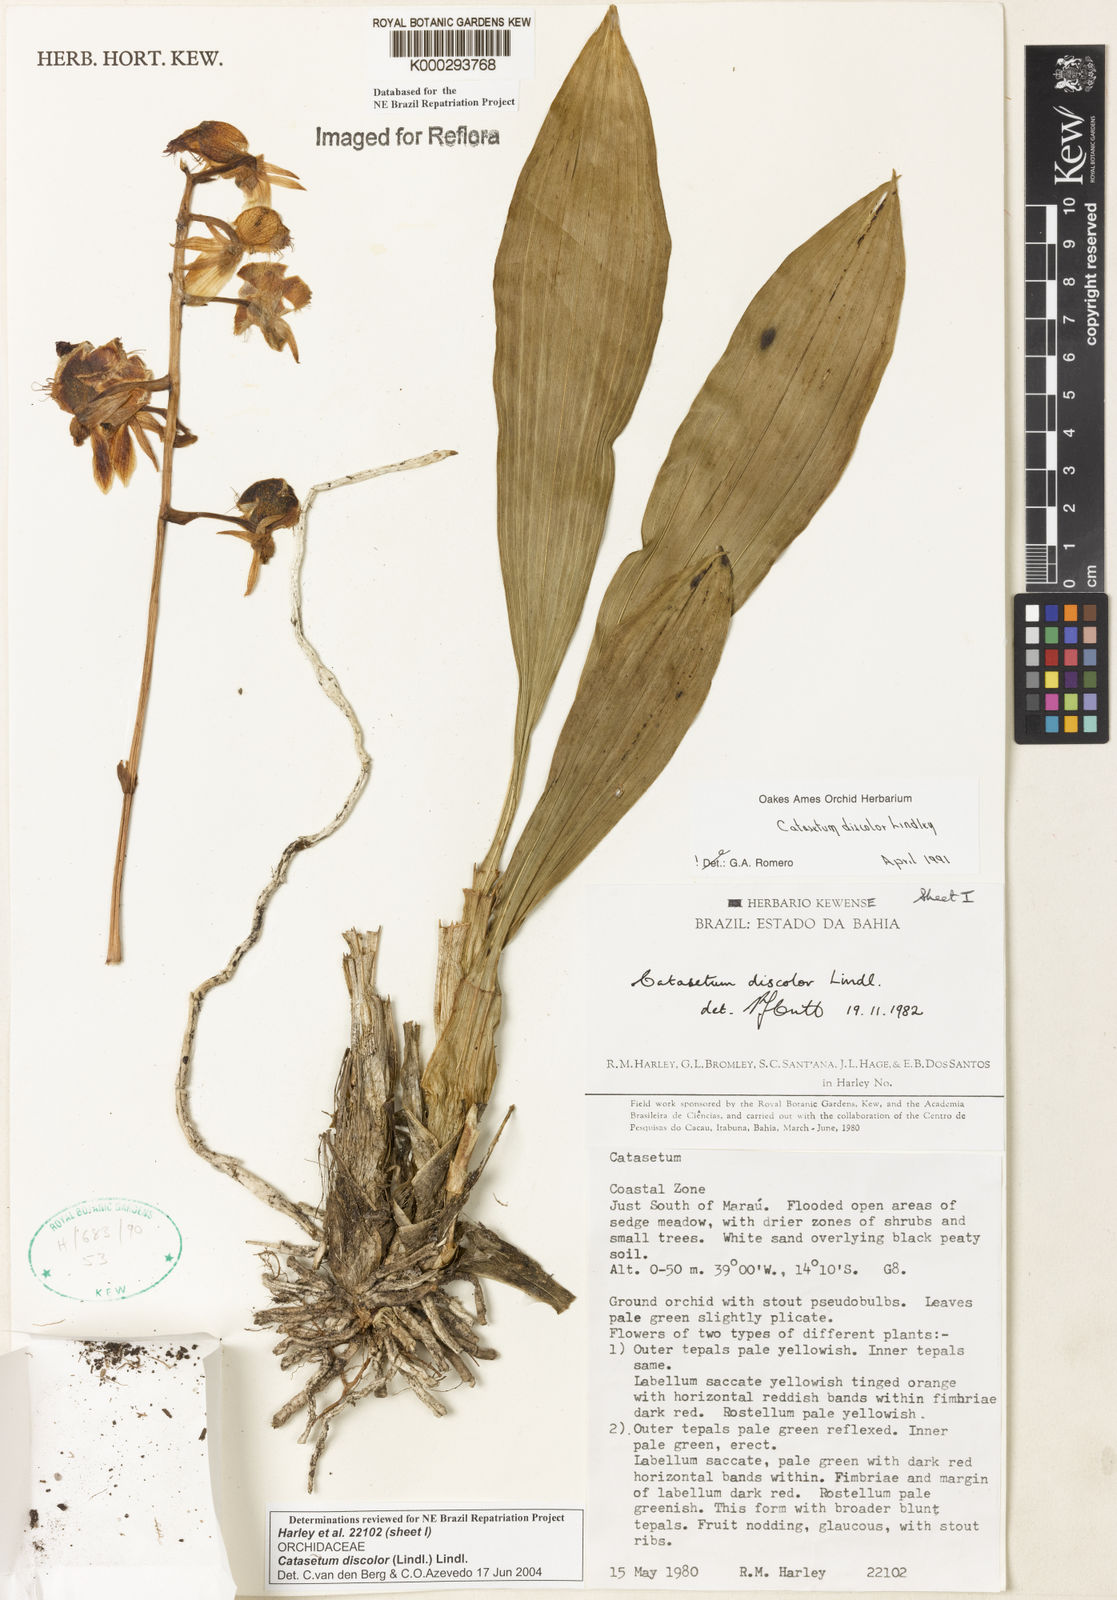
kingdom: Plantae
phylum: Tracheophyta
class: Liliopsida
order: Asparagales
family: Orchidaceae
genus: Catasetum
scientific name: Catasetum discolor
